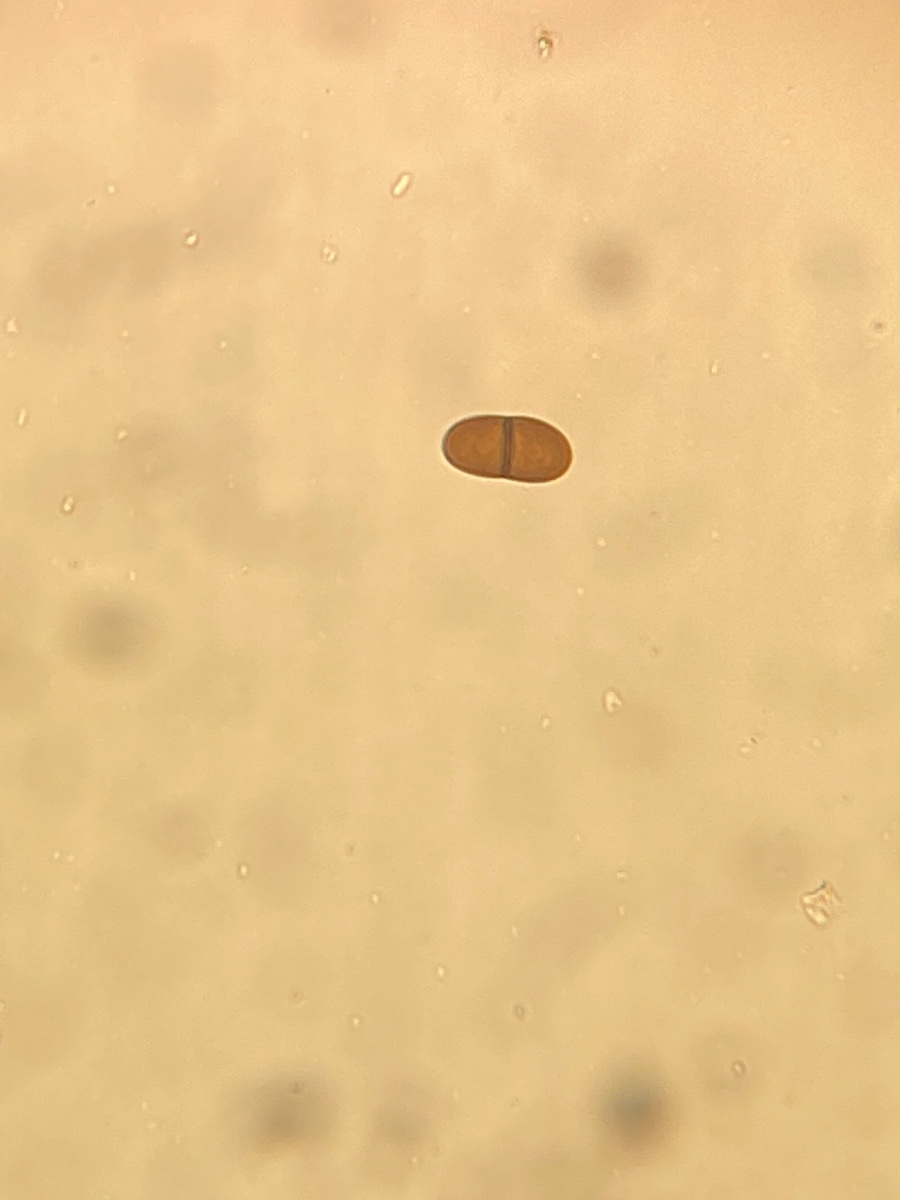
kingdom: Fungi
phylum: Ascomycota
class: Dothideomycetes
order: Botryosphaeriales
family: Botryosphaeriaceae
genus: Diplodia
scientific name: Diplodia coryli
